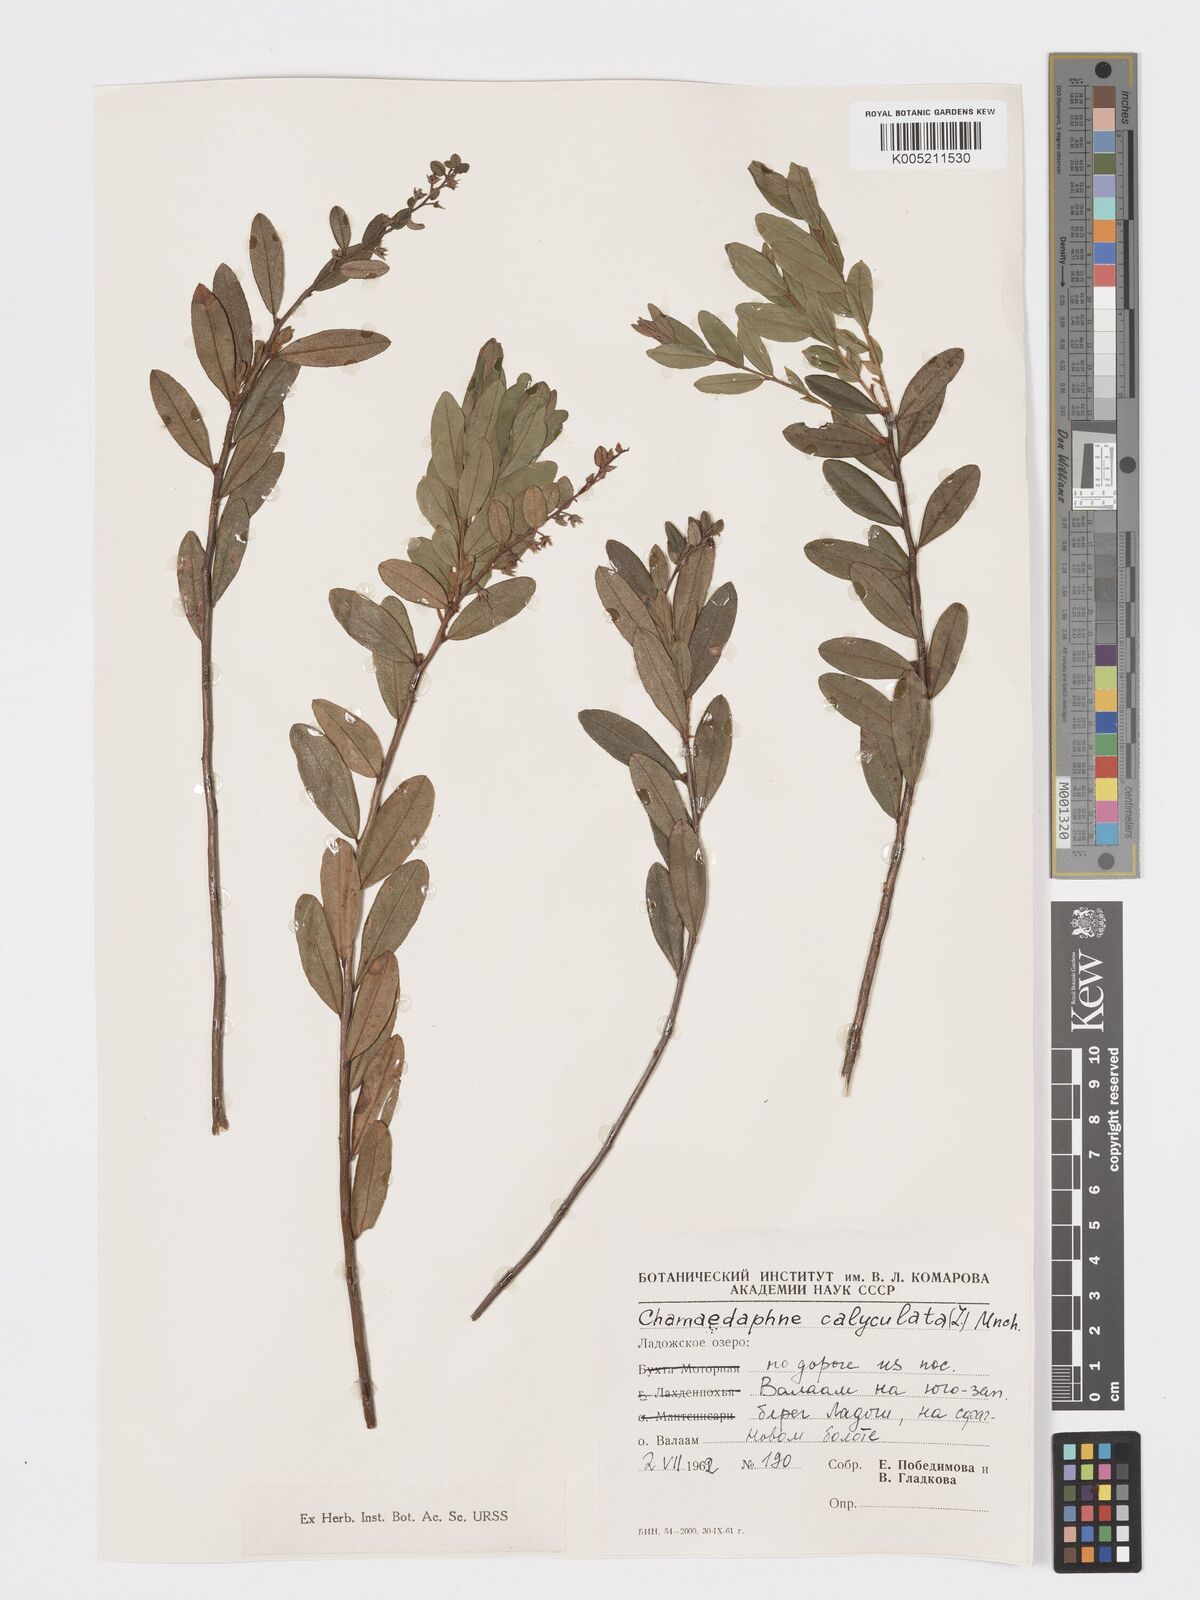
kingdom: Plantae
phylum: Tracheophyta
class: Magnoliopsida
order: Ericales
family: Ericaceae
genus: Chamaedaphne
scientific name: Chamaedaphne calyculata
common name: Leatherleaf
